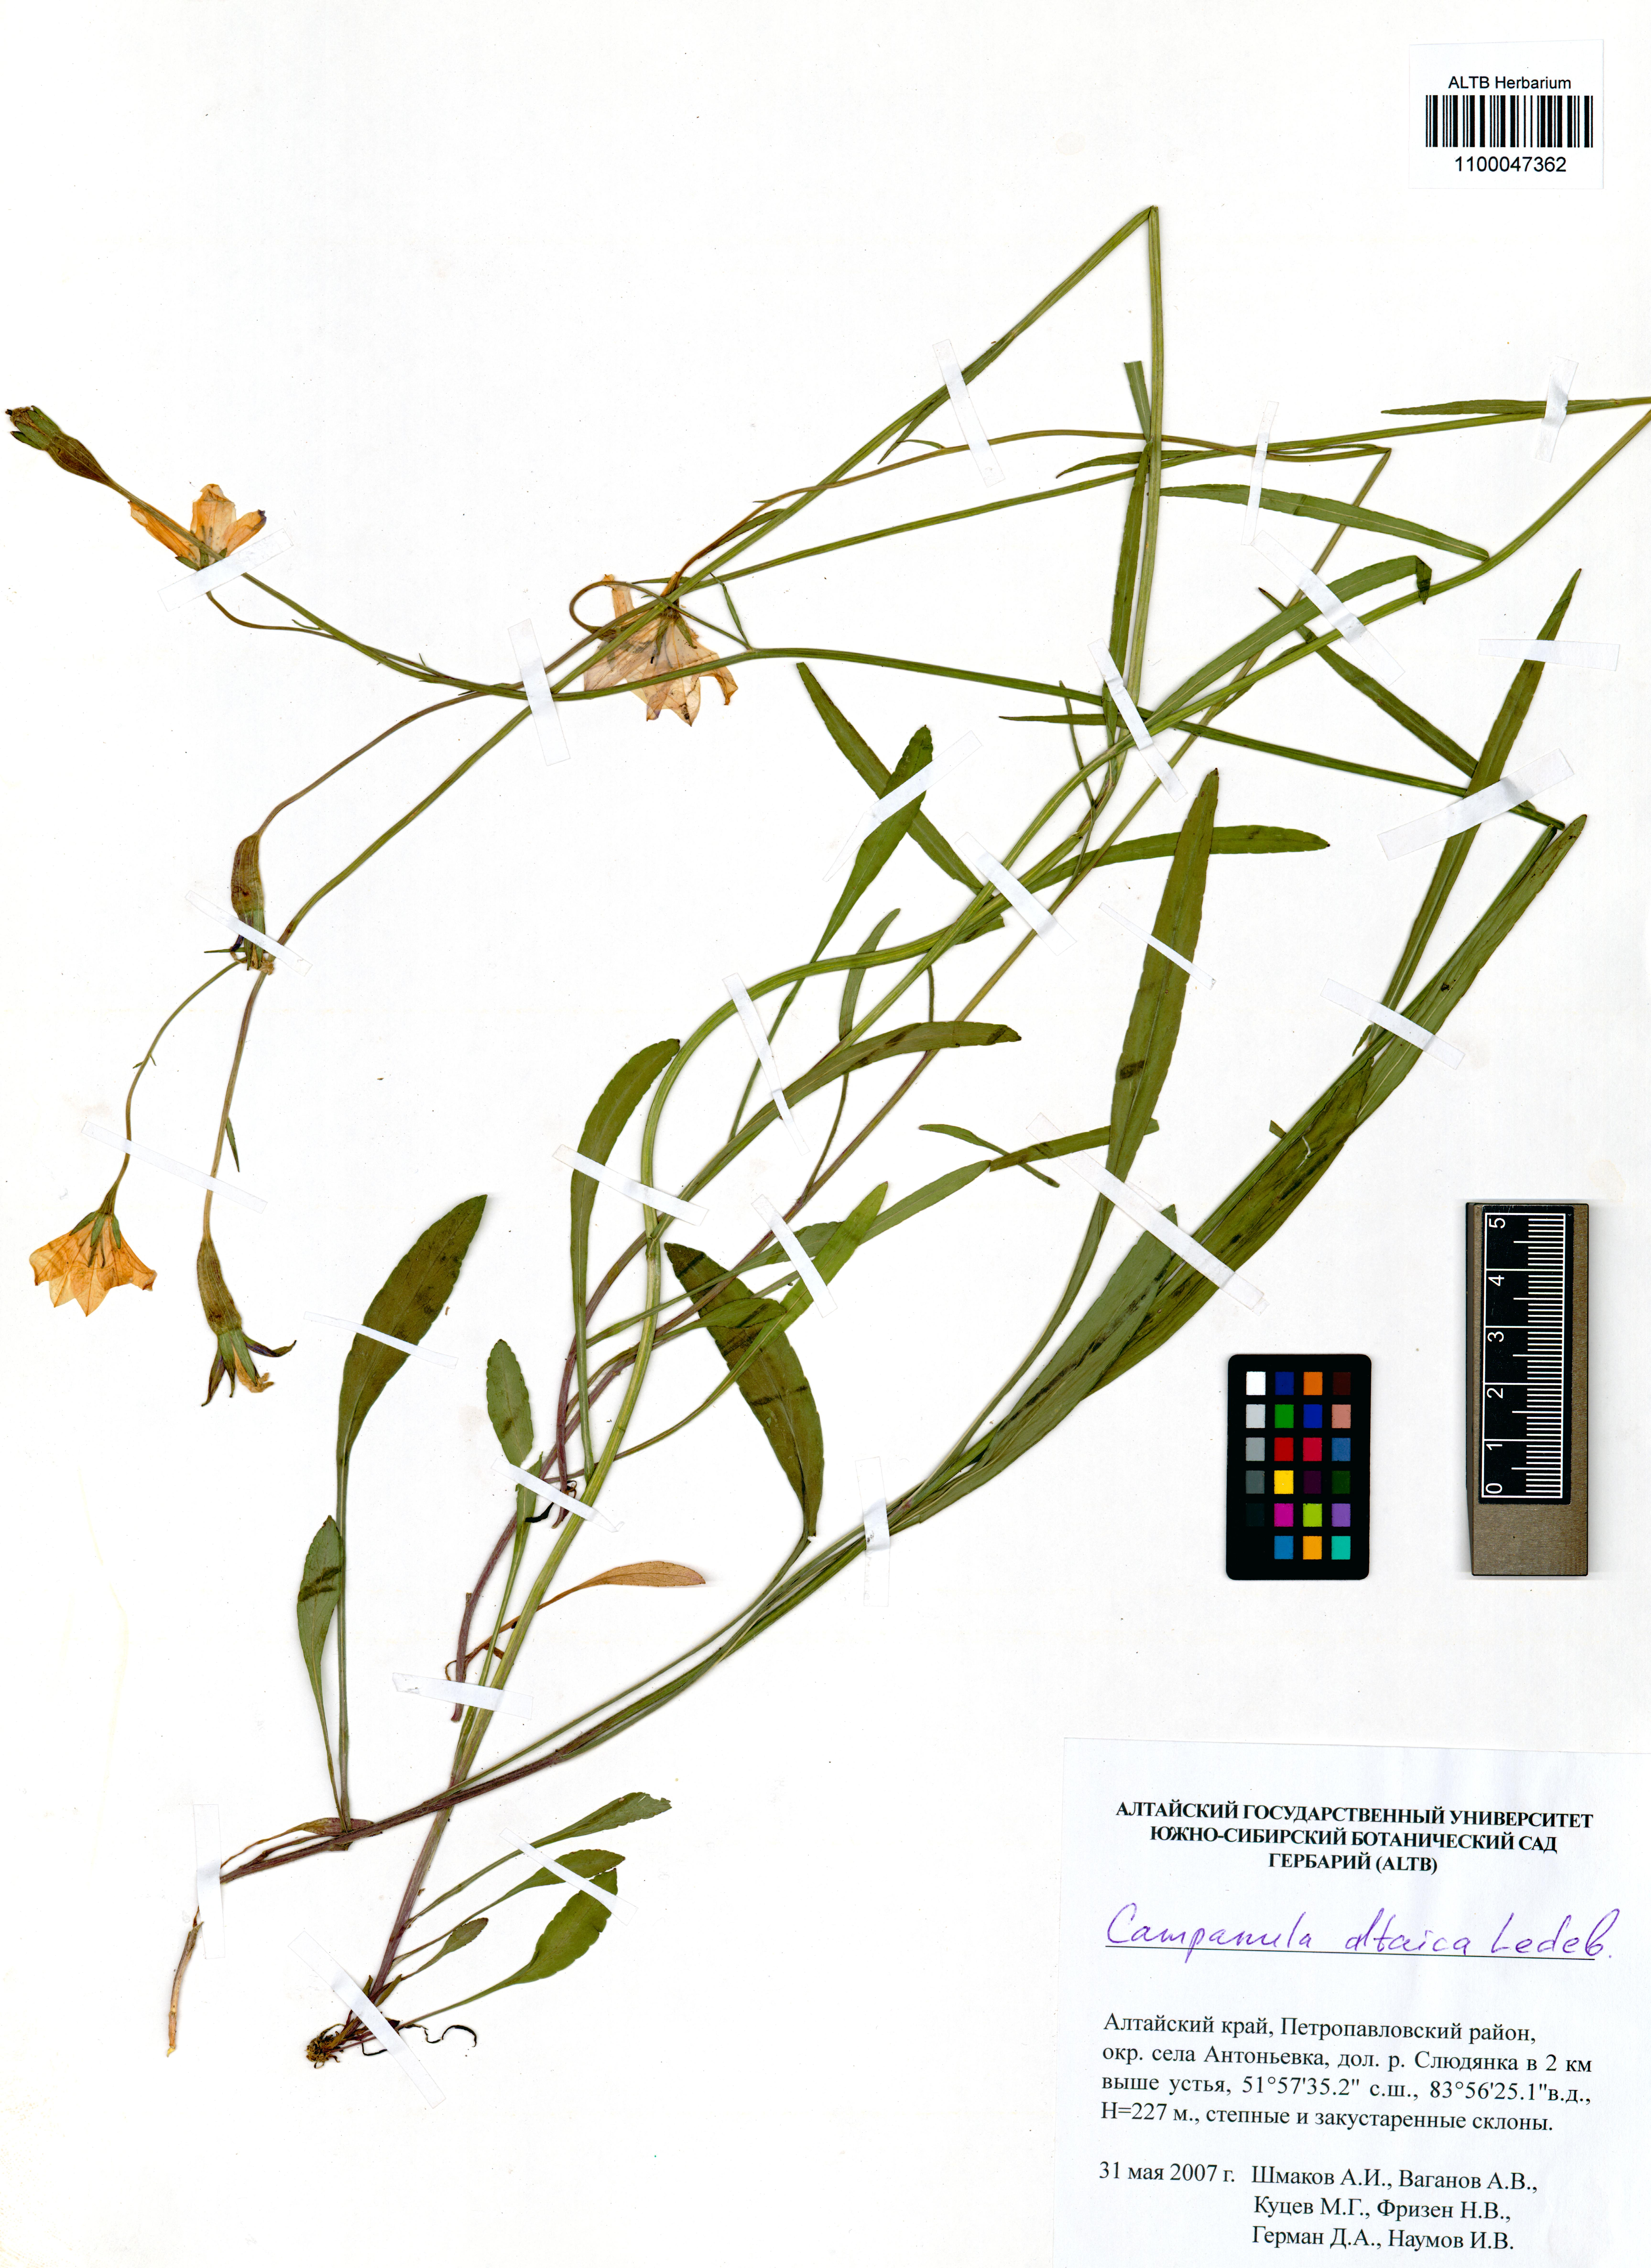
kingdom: Plantae
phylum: Tracheophyta
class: Magnoliopsida
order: Asterales
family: Campanulaceae
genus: Campanula
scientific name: Campanula stevenii
